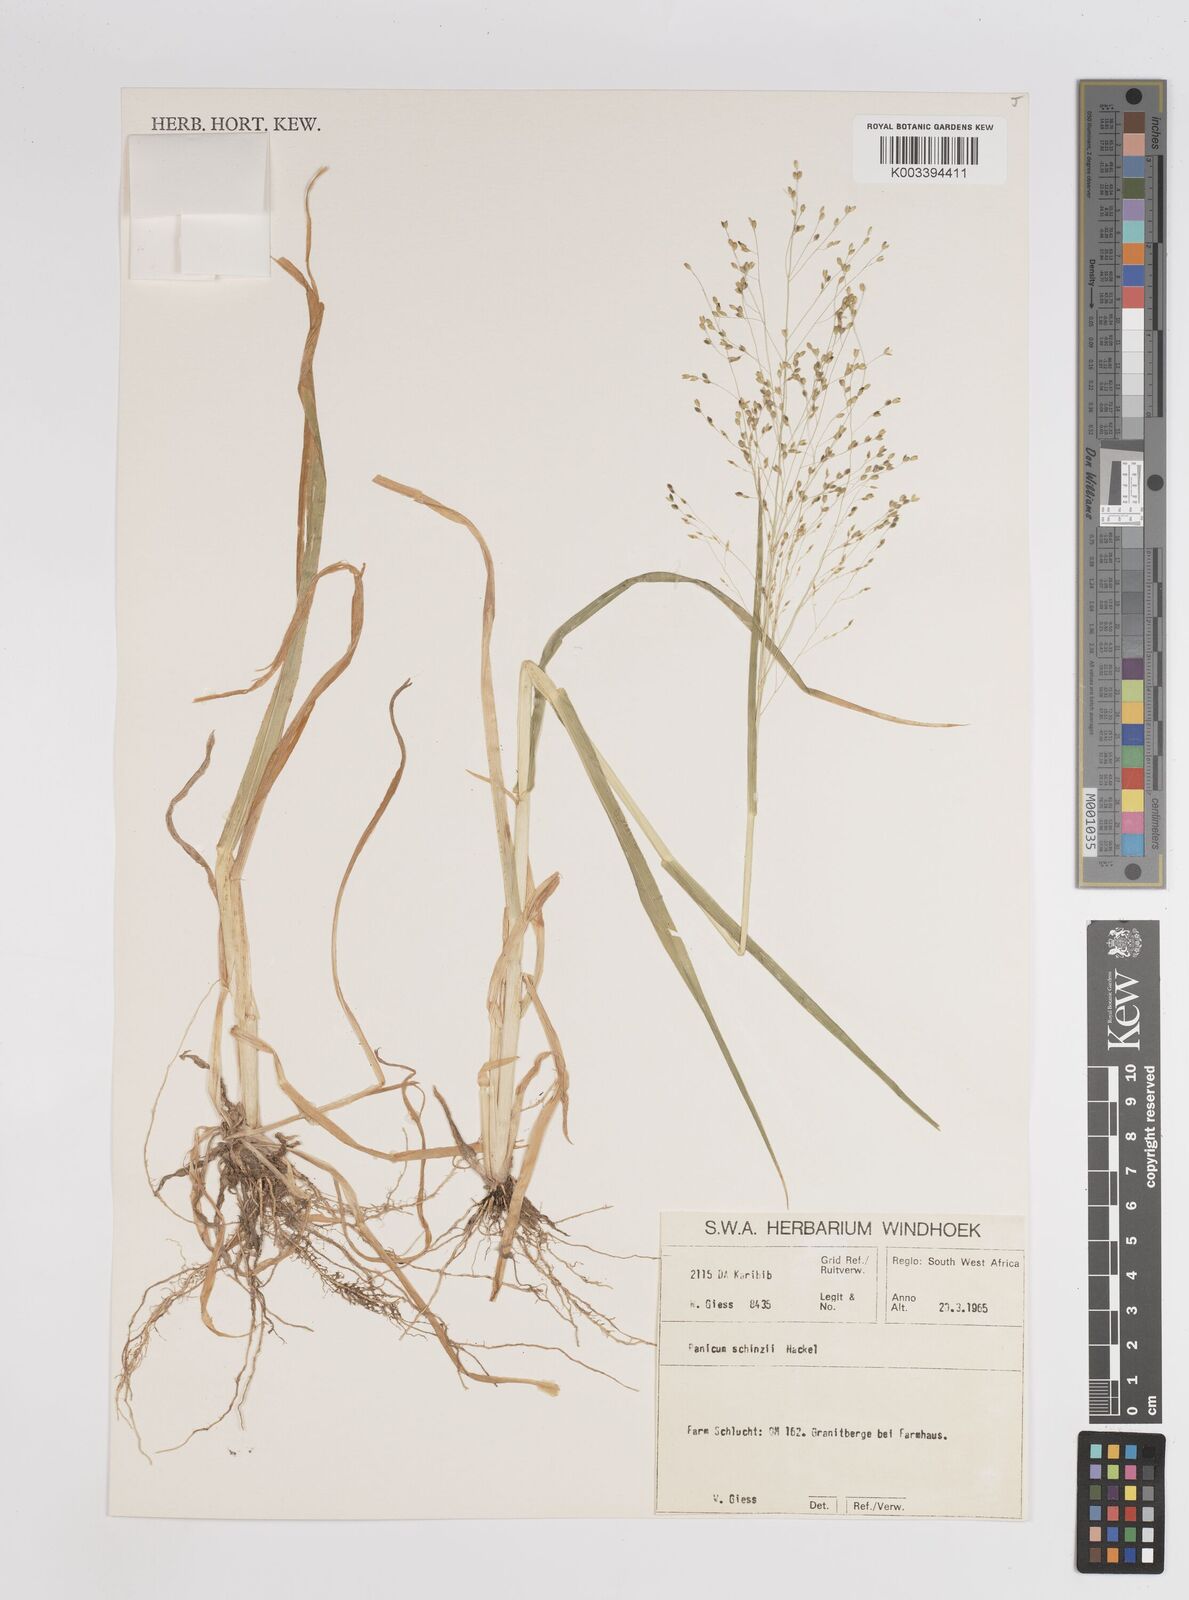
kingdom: Plantae
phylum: Tracheophyta
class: Liliopsida
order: Poales
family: Poaceae
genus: Panicum
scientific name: Panicum simulans
